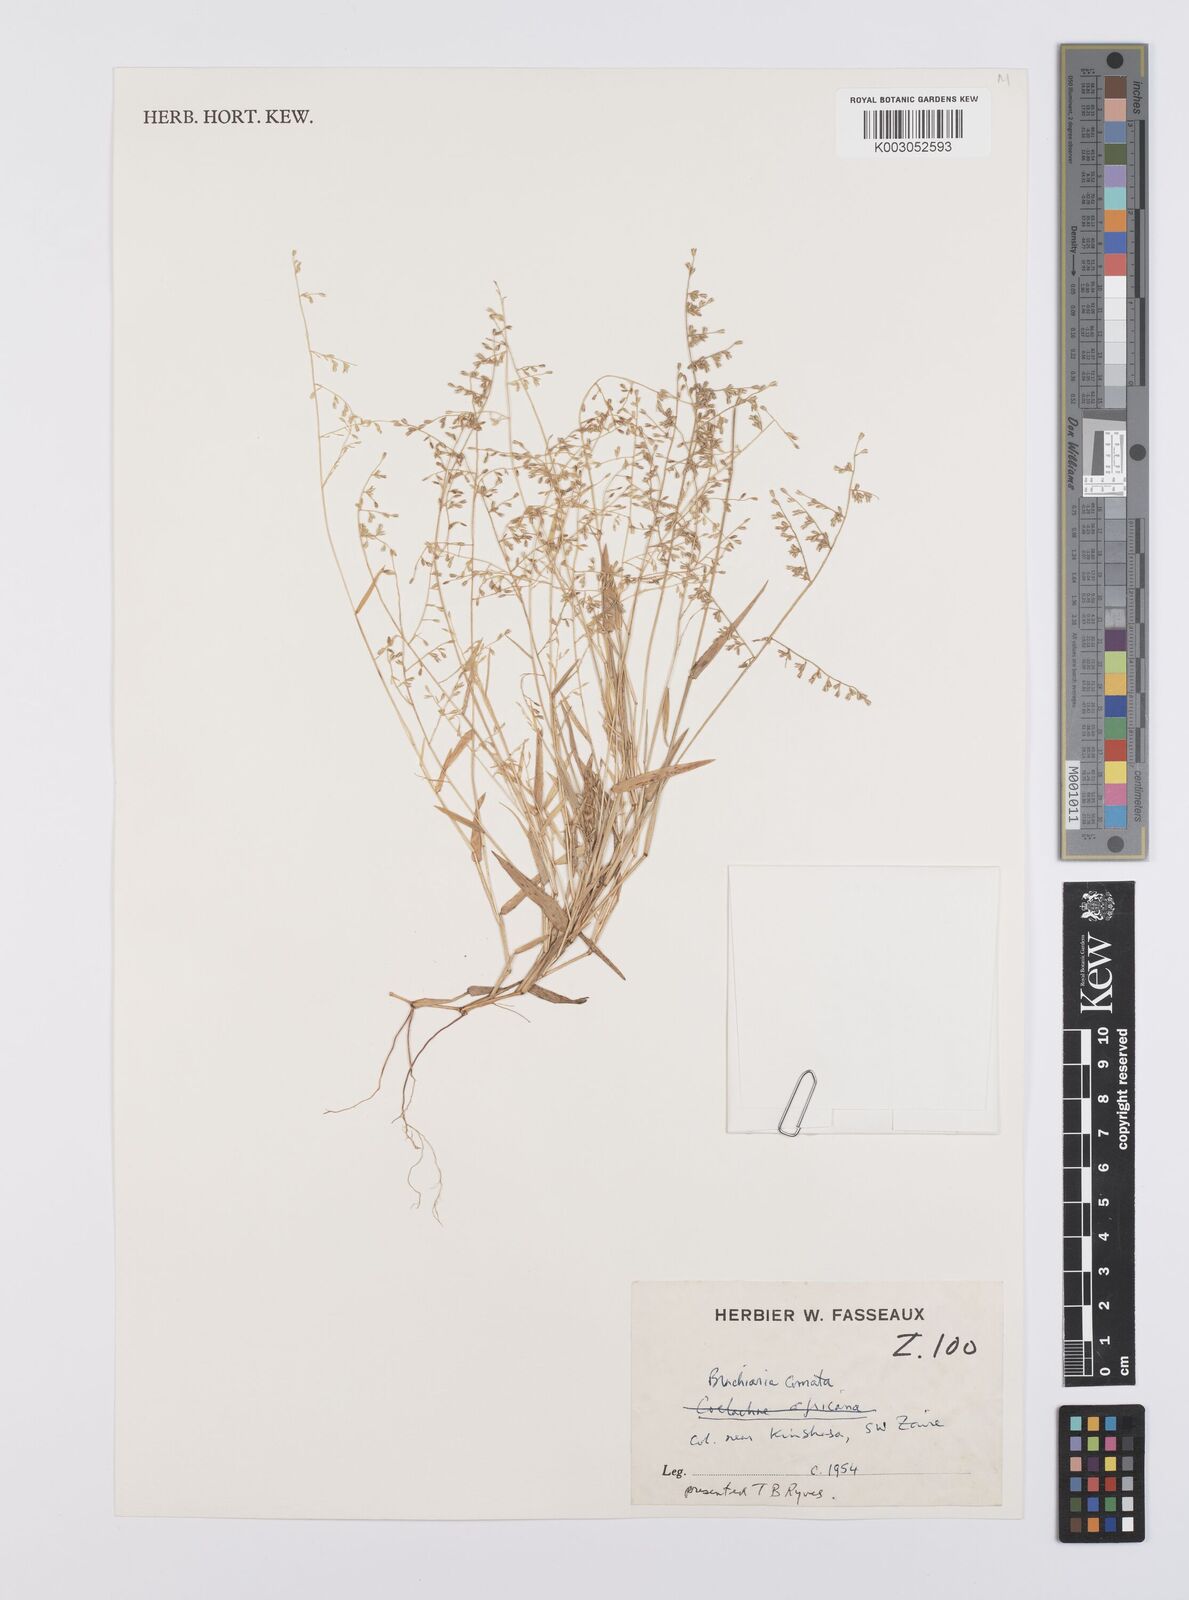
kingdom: Plantae
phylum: Tracheophyta
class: Liliopsida
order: Poales
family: Poaceae
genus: Urochloa
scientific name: Urochloa comata
